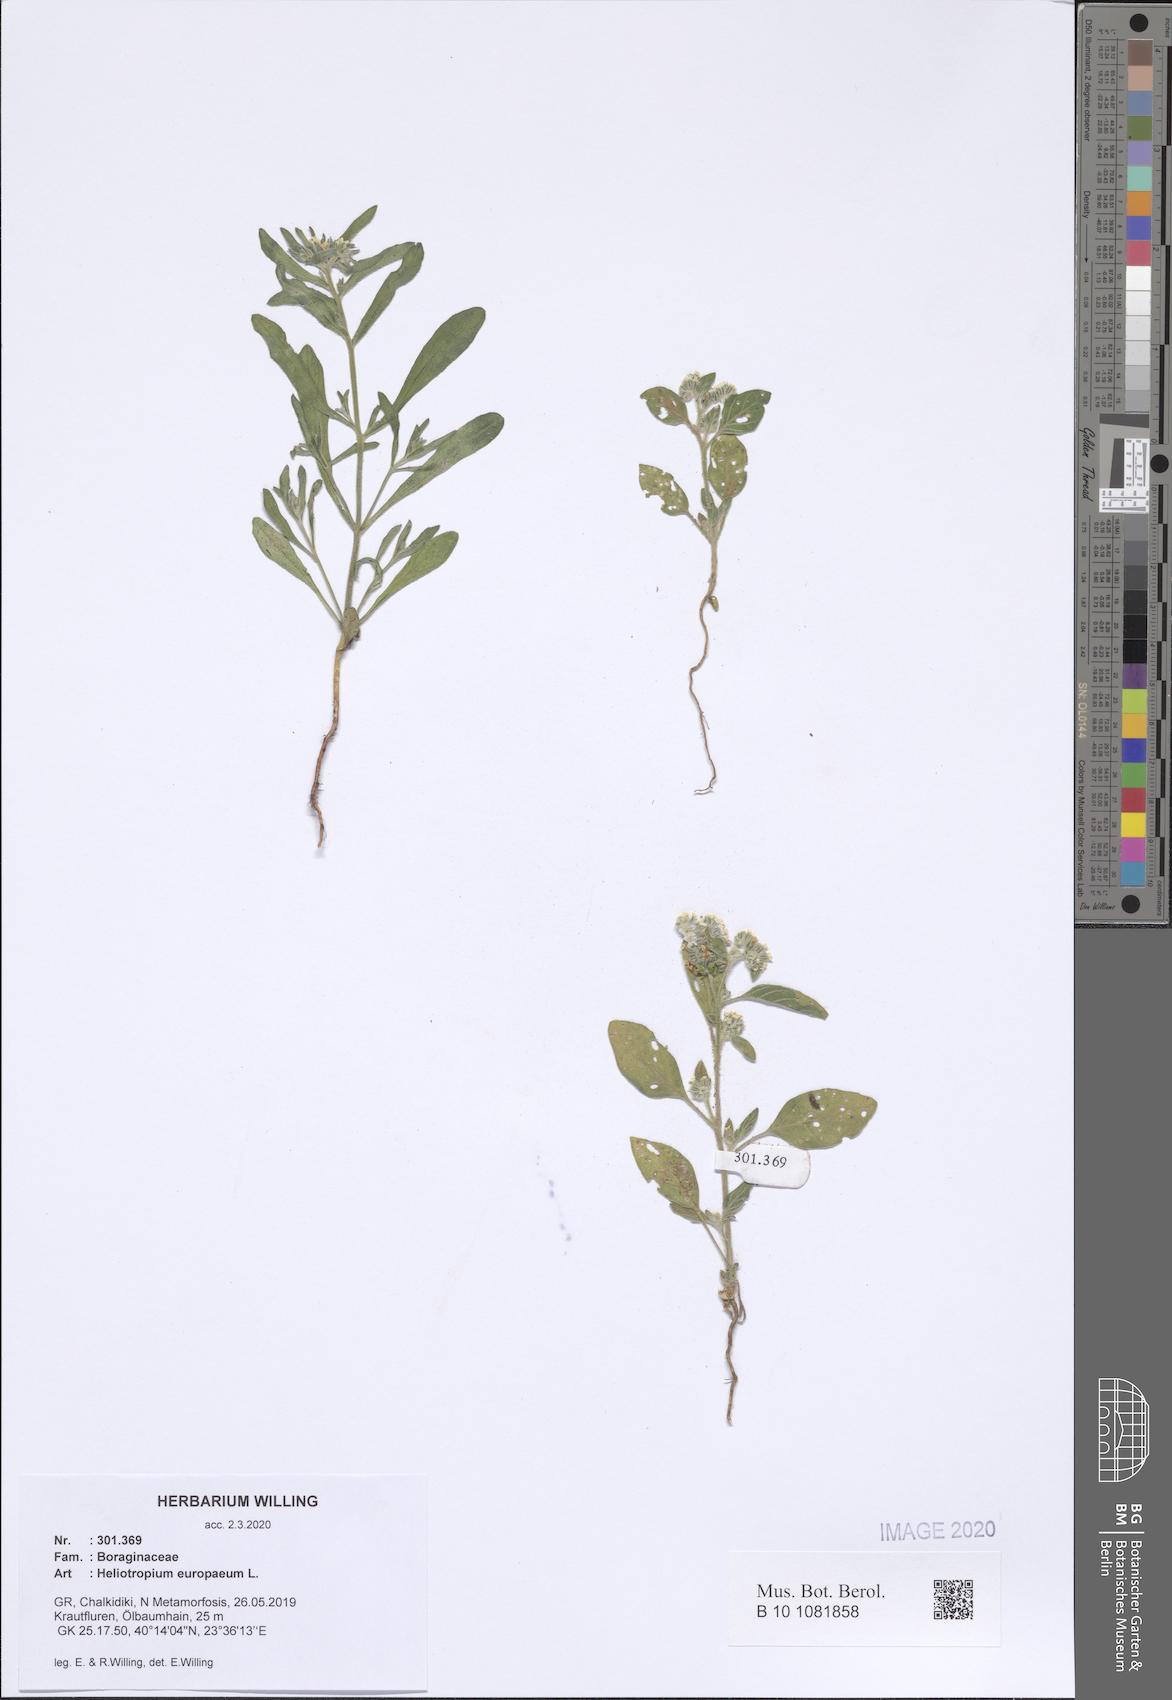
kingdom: Plantae
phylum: Tracheophyta
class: Magnoliopsida
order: Boraginales
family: Heliotropiaceae
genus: Heliotropium
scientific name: Heliotropium europaeum
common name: European heliotrope
